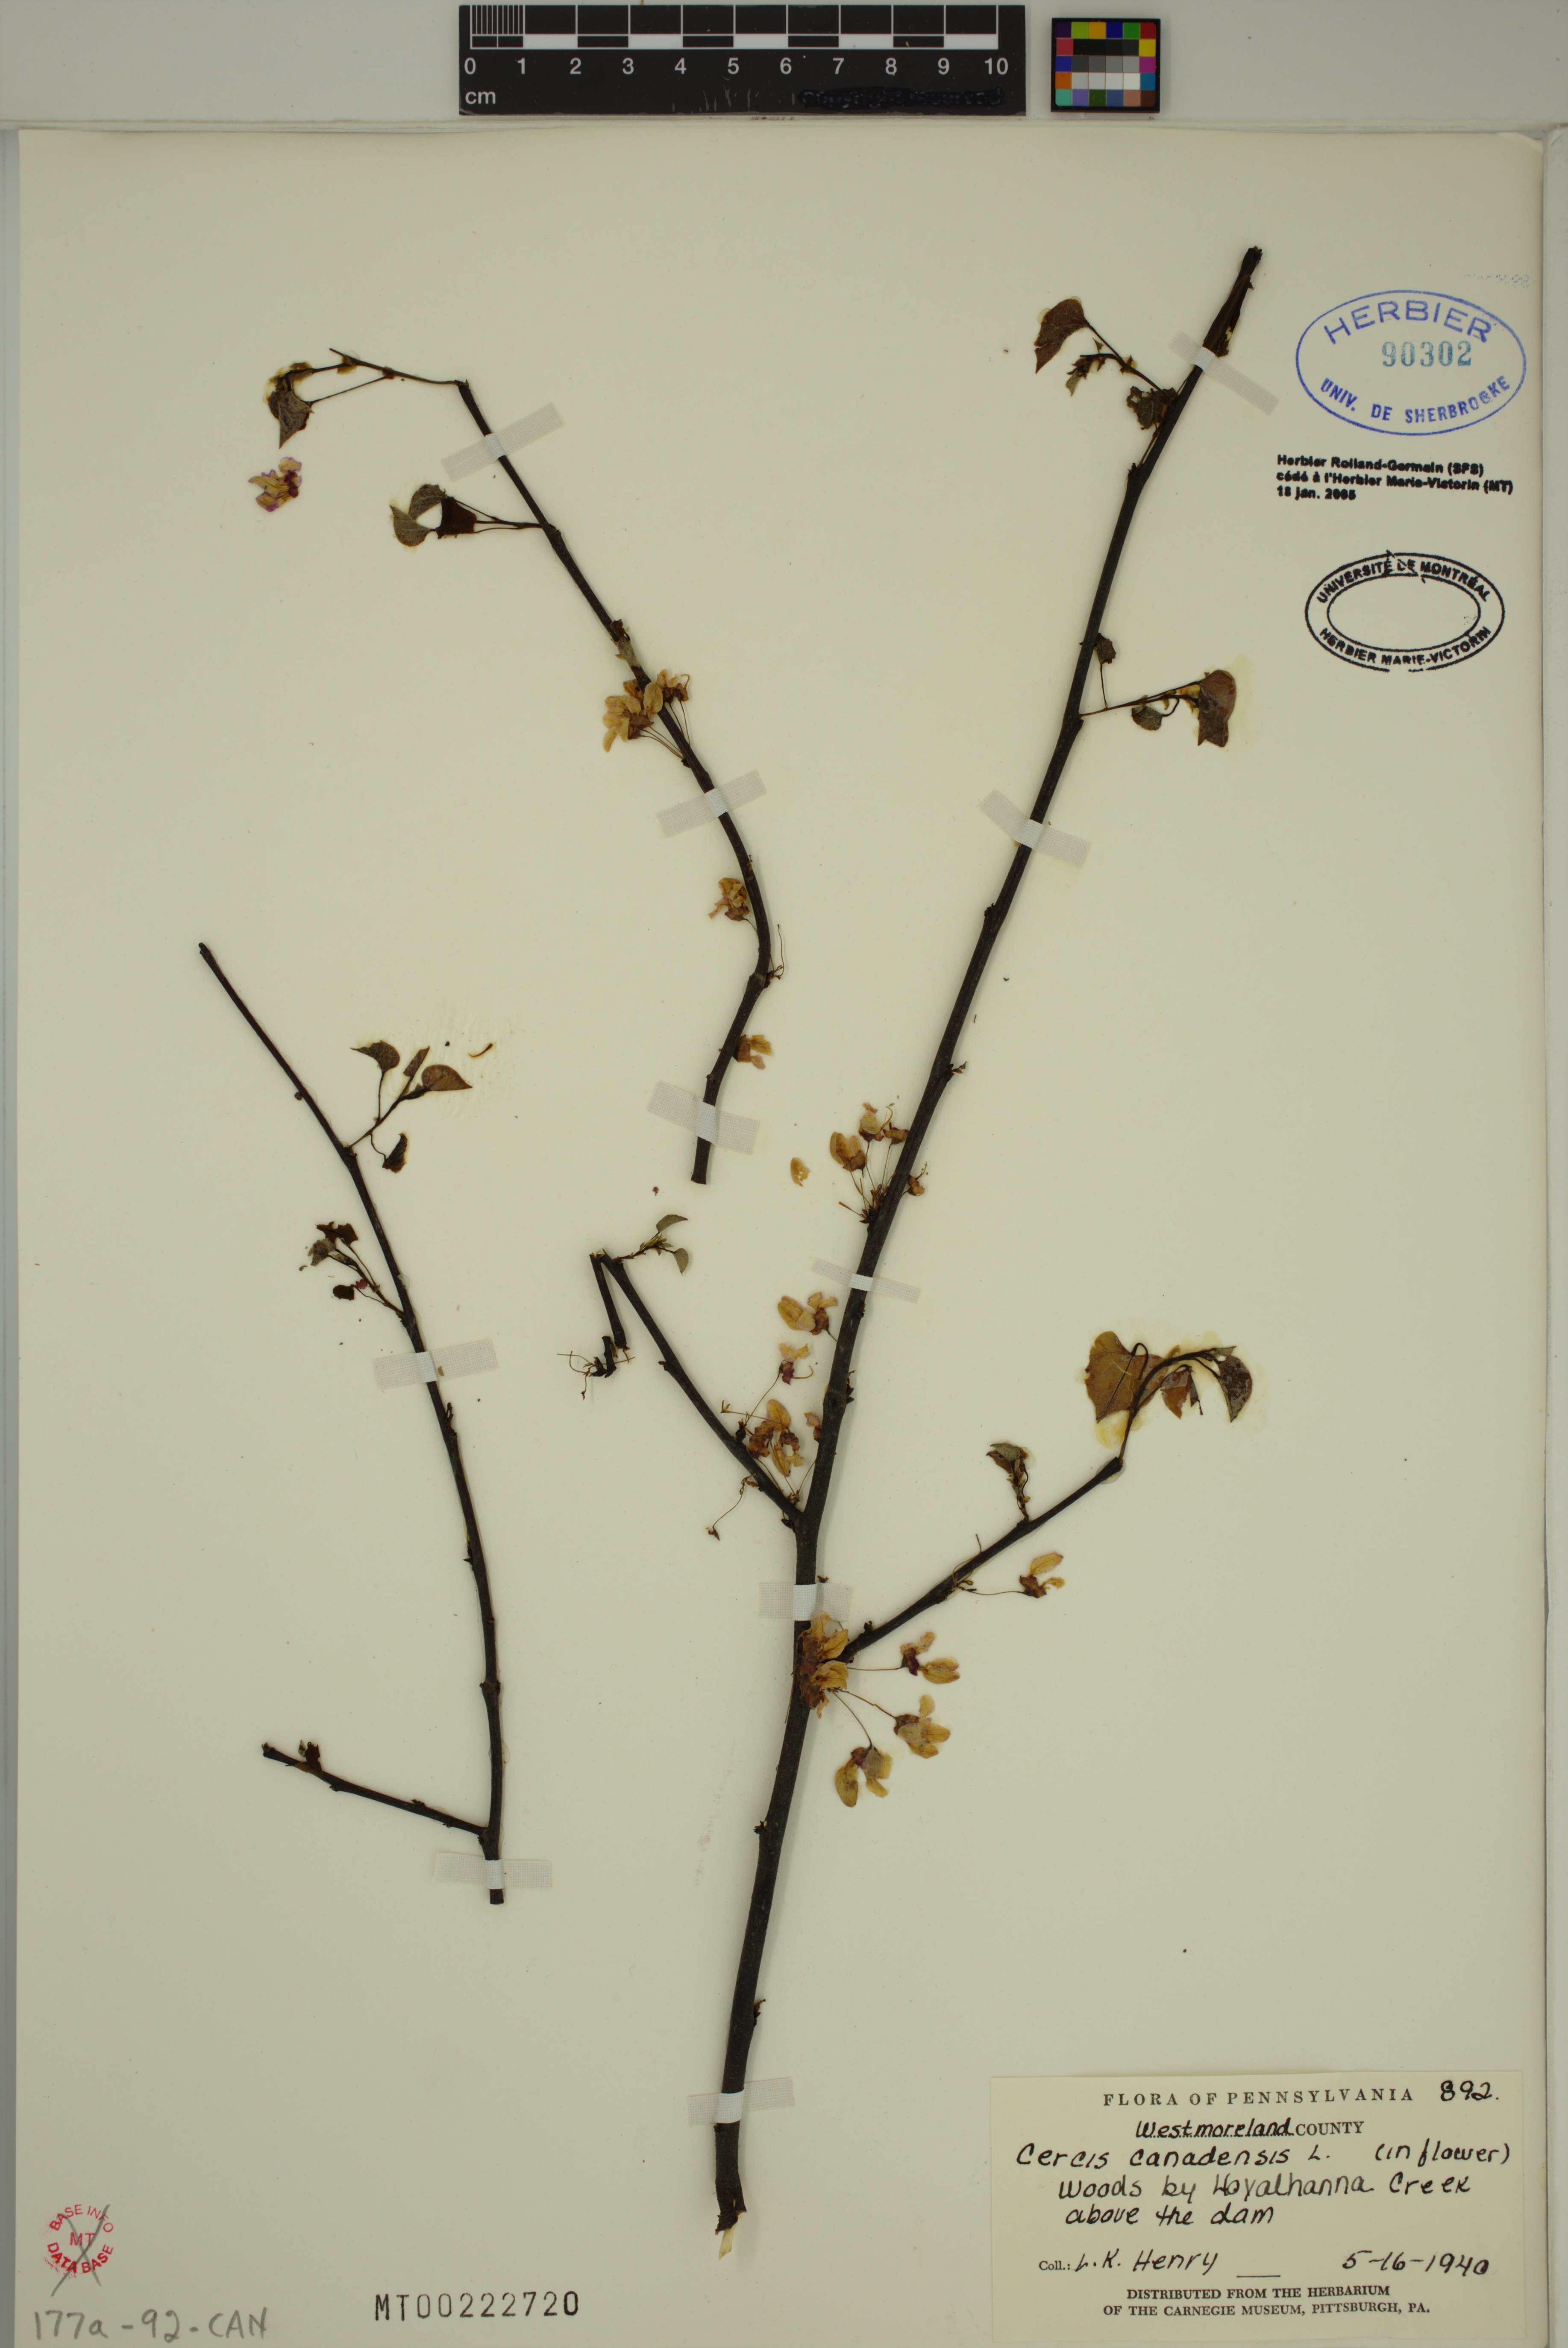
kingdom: Plantae
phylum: Tracheophyta
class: Magnoliopsida
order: Fabales
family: Fabaceae
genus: Cercis
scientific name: Cercis canadensis
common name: Eastern redbud
